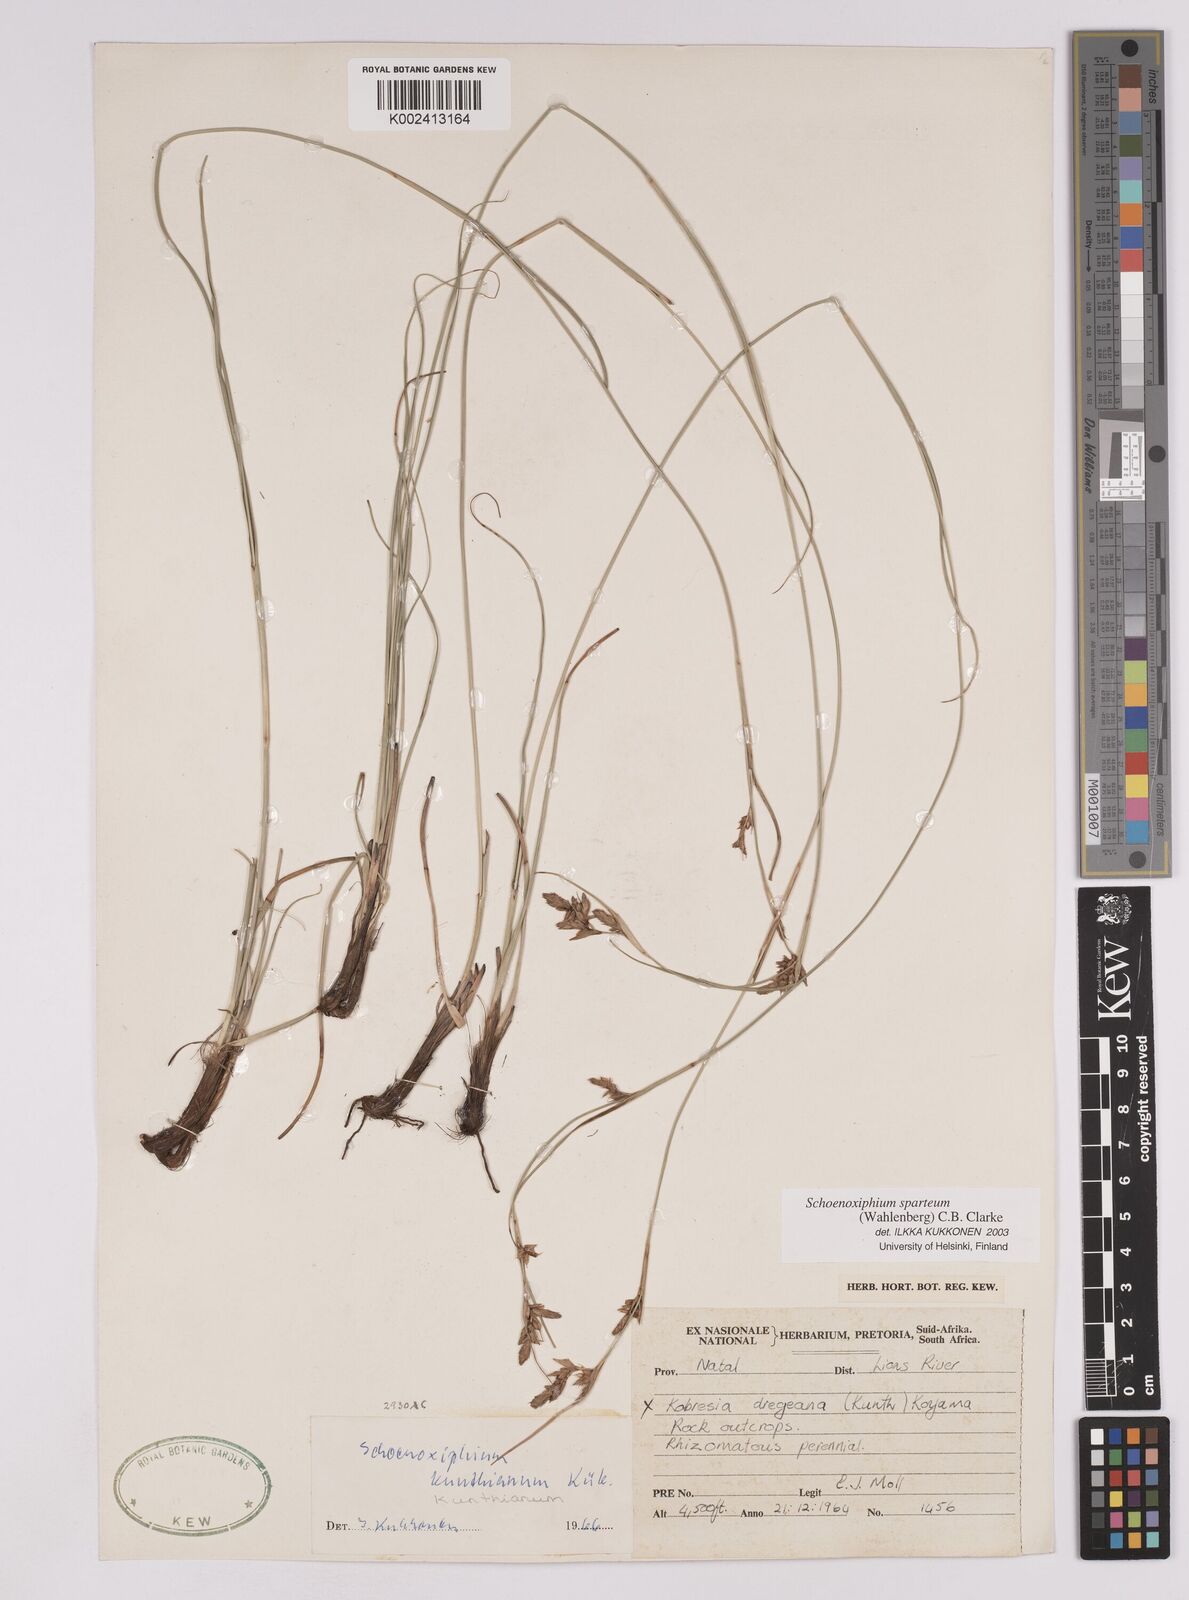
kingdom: Plantae
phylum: Tracheophyta
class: Liliopsida
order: Poales
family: Cyperaceae
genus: Carex
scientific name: Carex spartea
